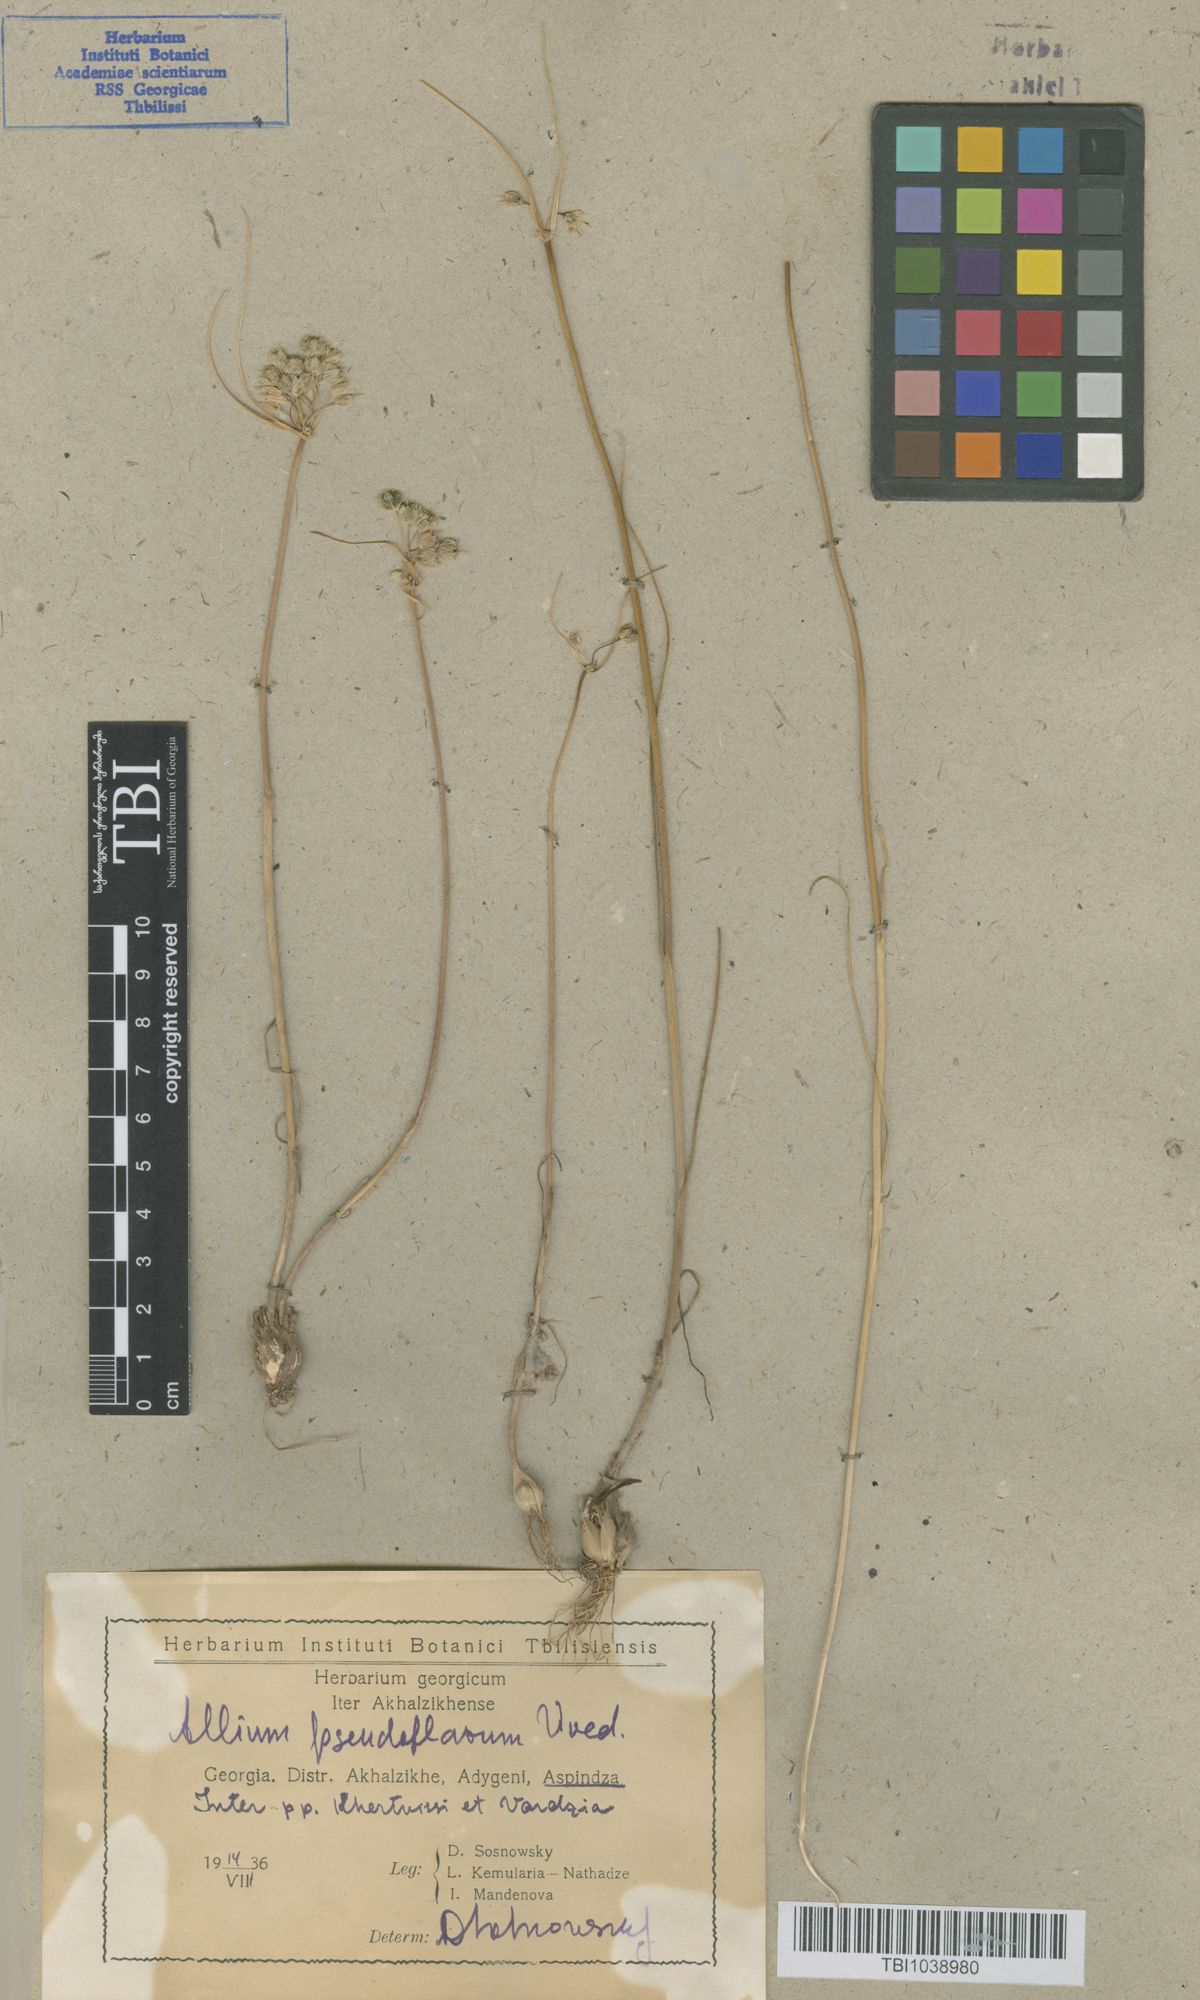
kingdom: Plantae
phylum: Tracheophyta
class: Liliopsida
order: Asparagales
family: Amaryllidaceae
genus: Allium
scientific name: Allium pseudoflavum
